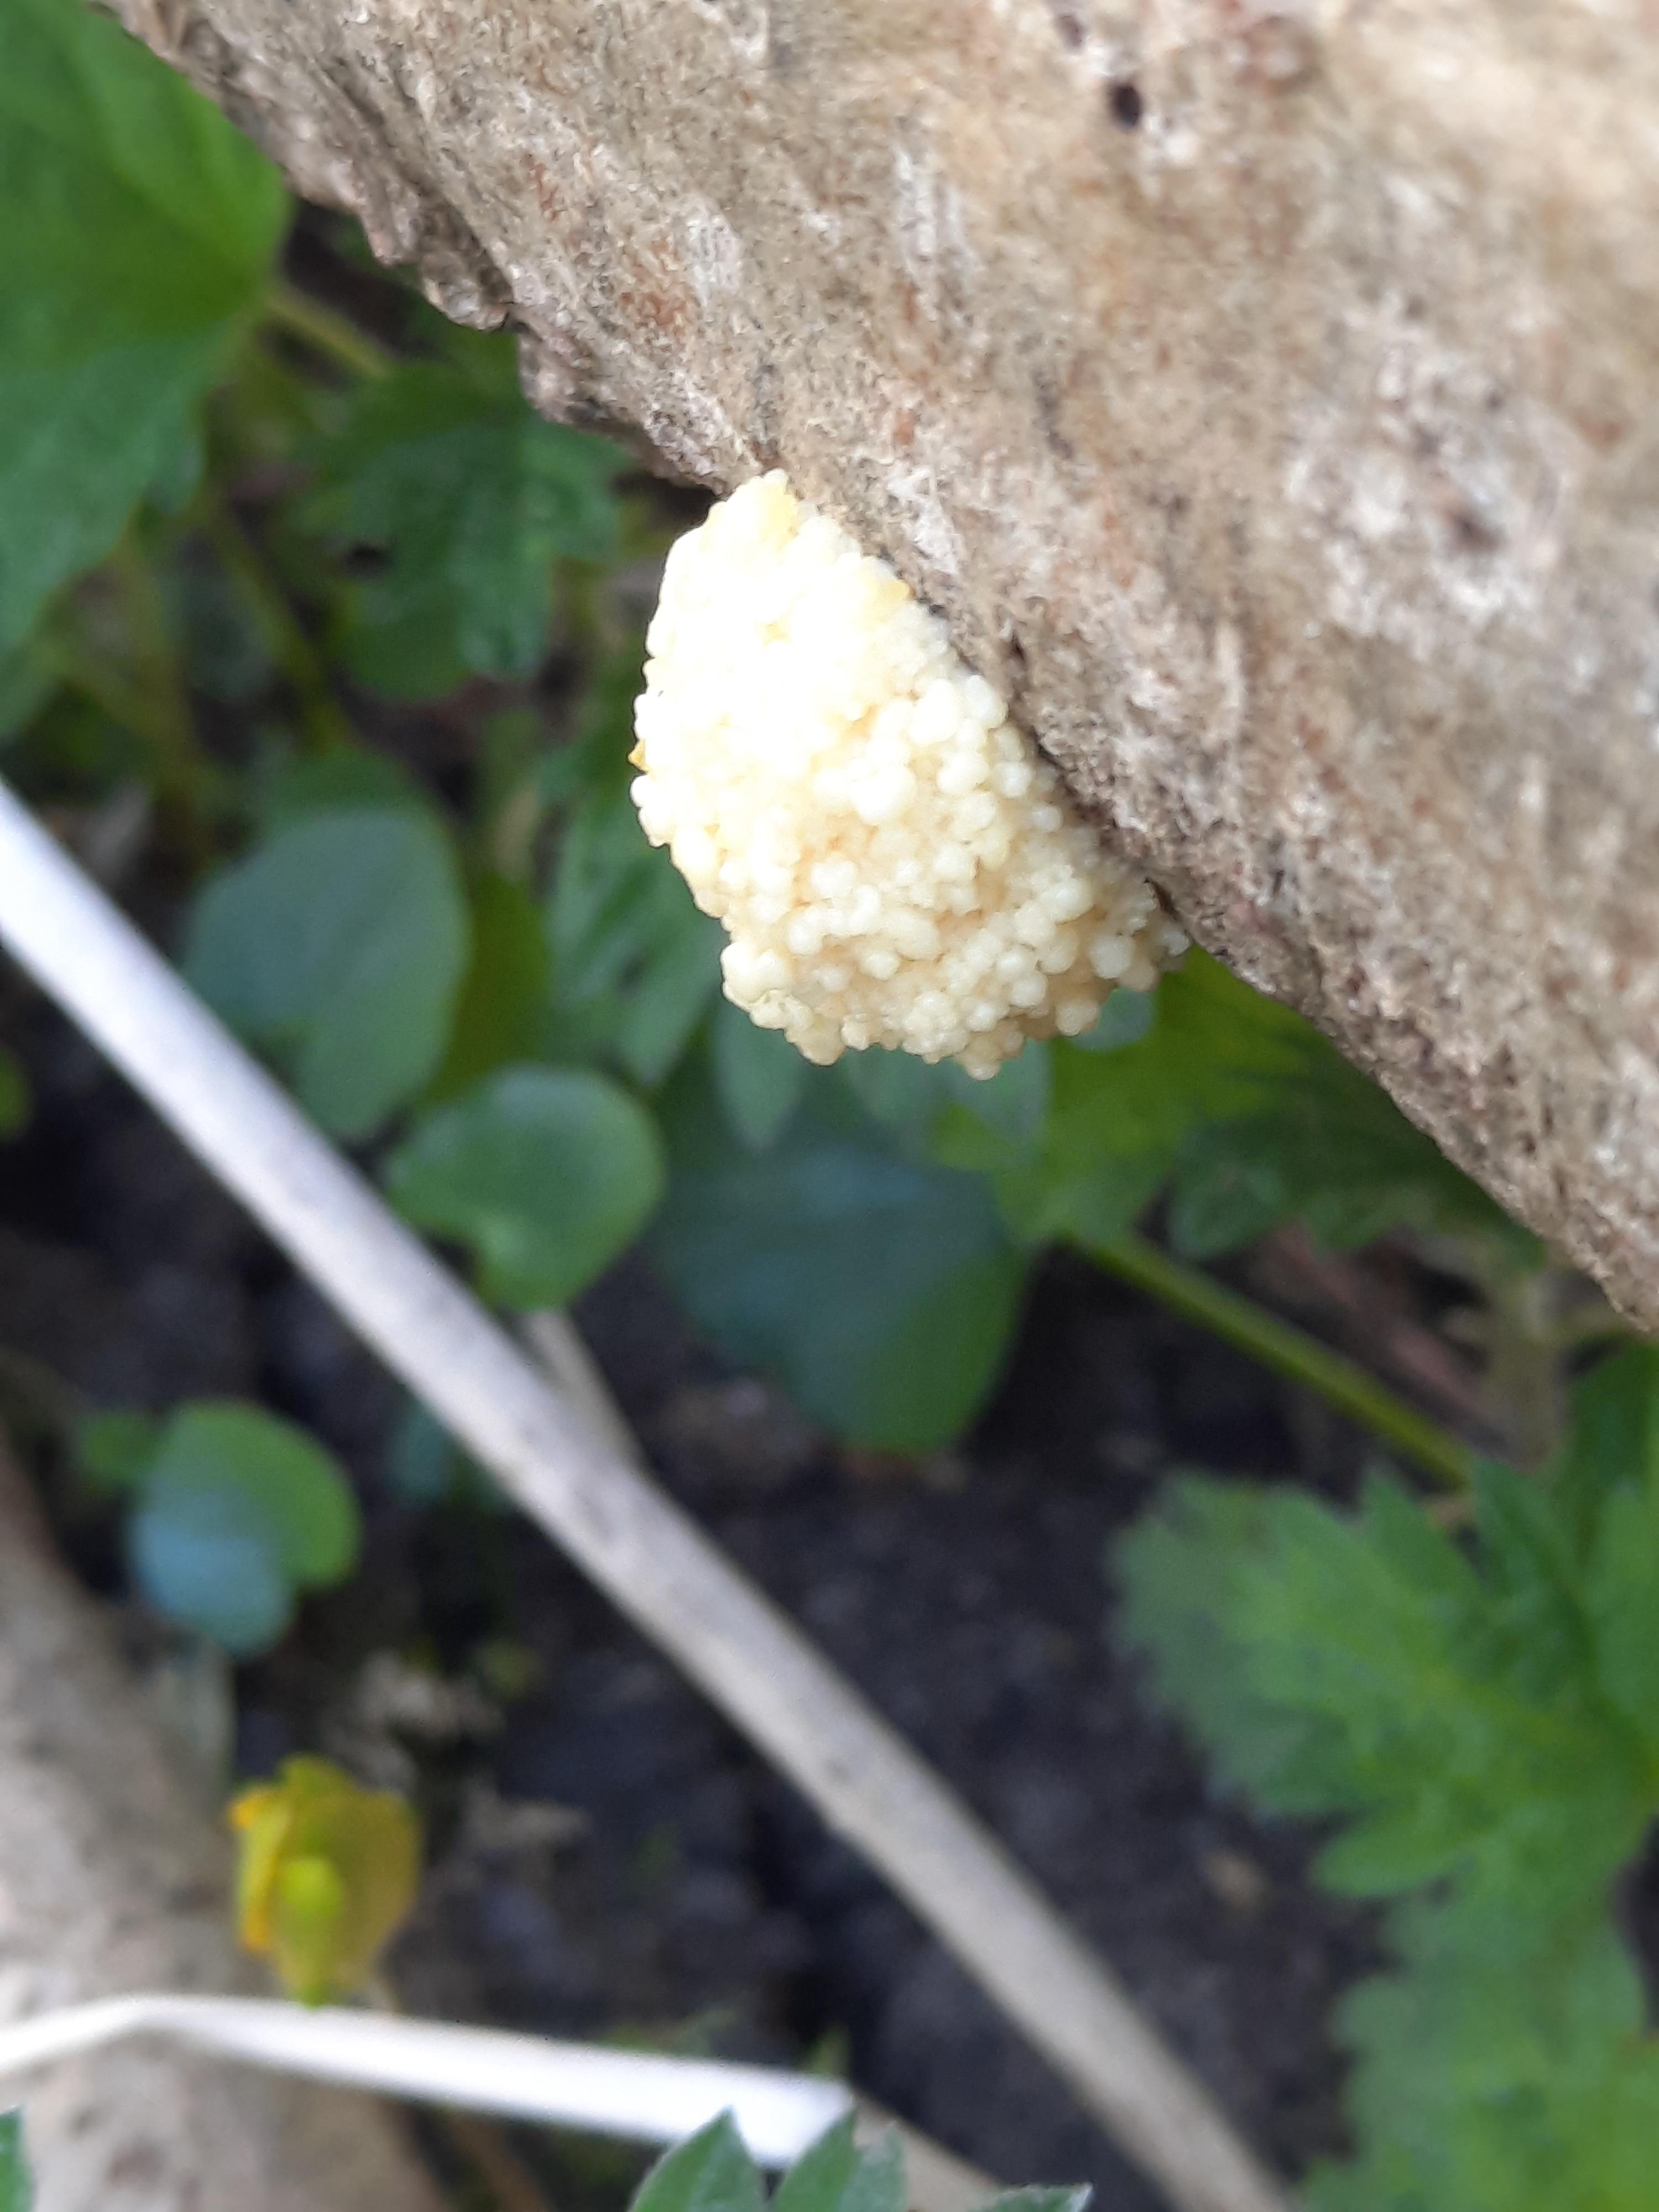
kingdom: Protozoa
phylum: Mycetozoa
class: Myxomycetes
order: Cribrariales
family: Tubiferaceae
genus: Reticularia
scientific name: Reticularia
